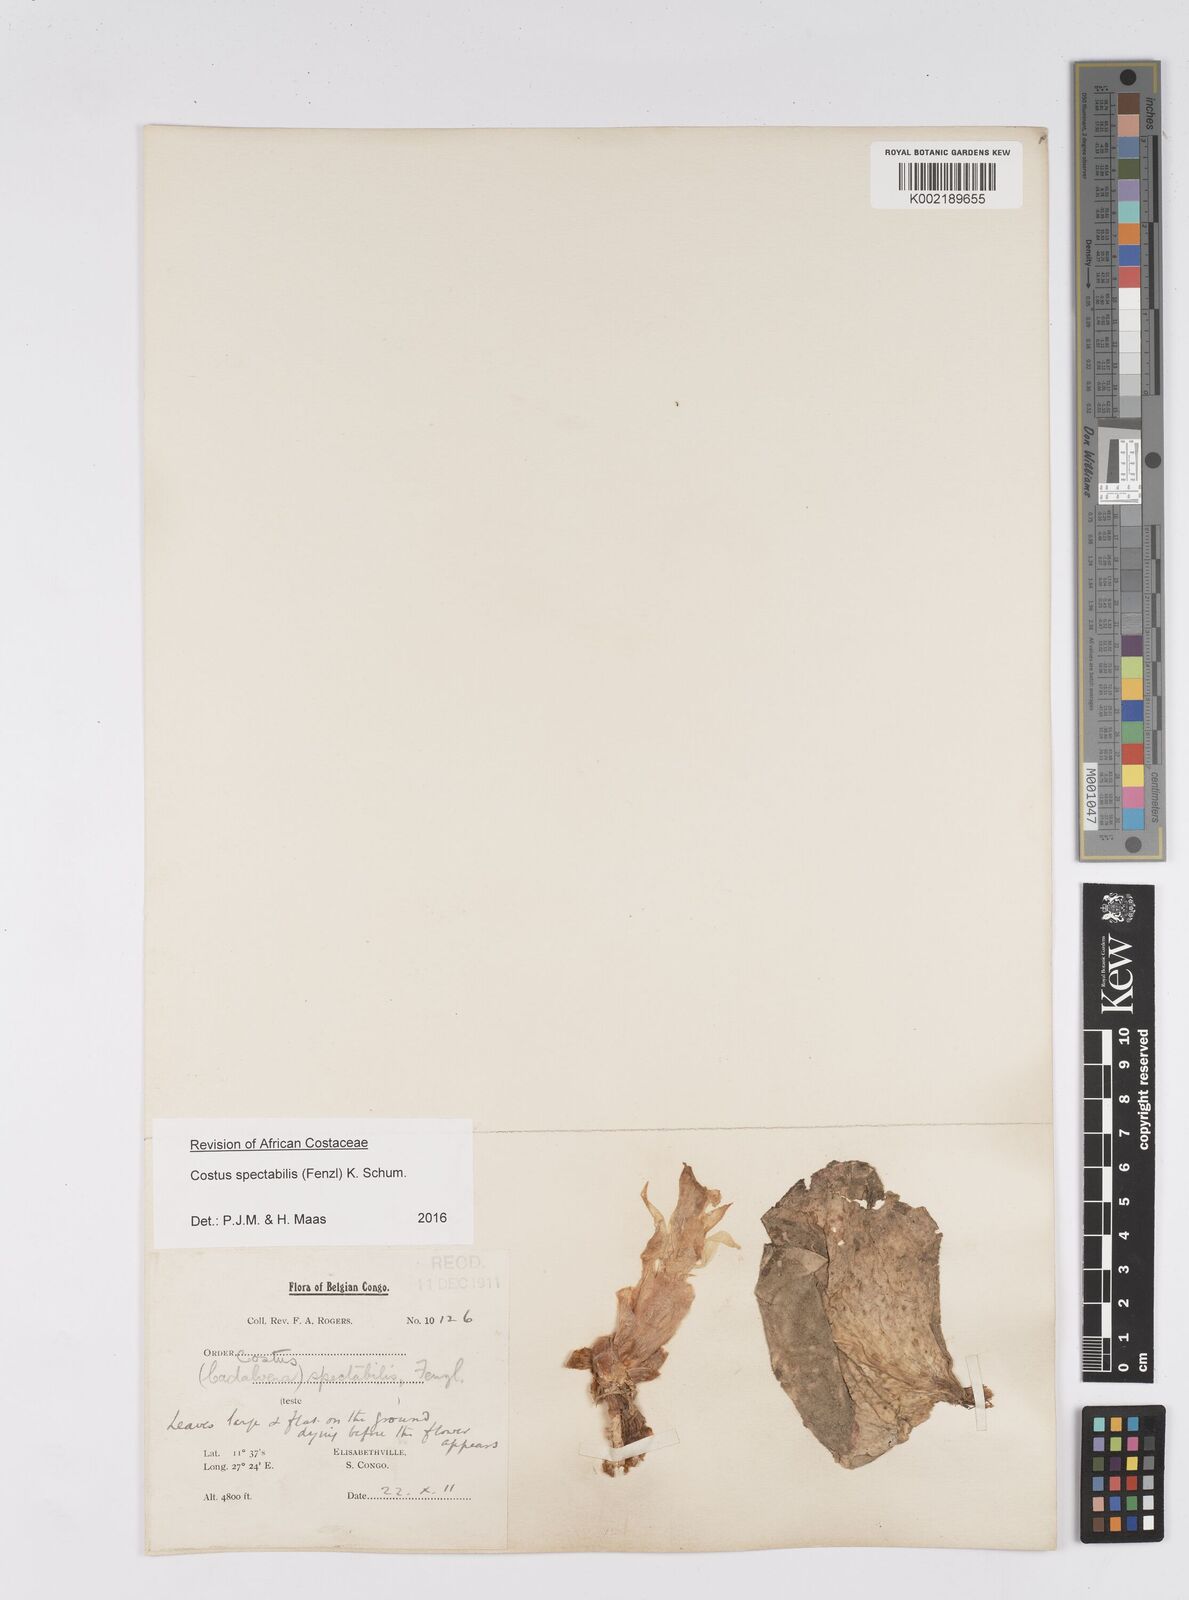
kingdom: Plantae
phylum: Tracheophyta
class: Liliopsida
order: Zingiberales
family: Costaceae
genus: Costus
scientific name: Costus spectabilis
